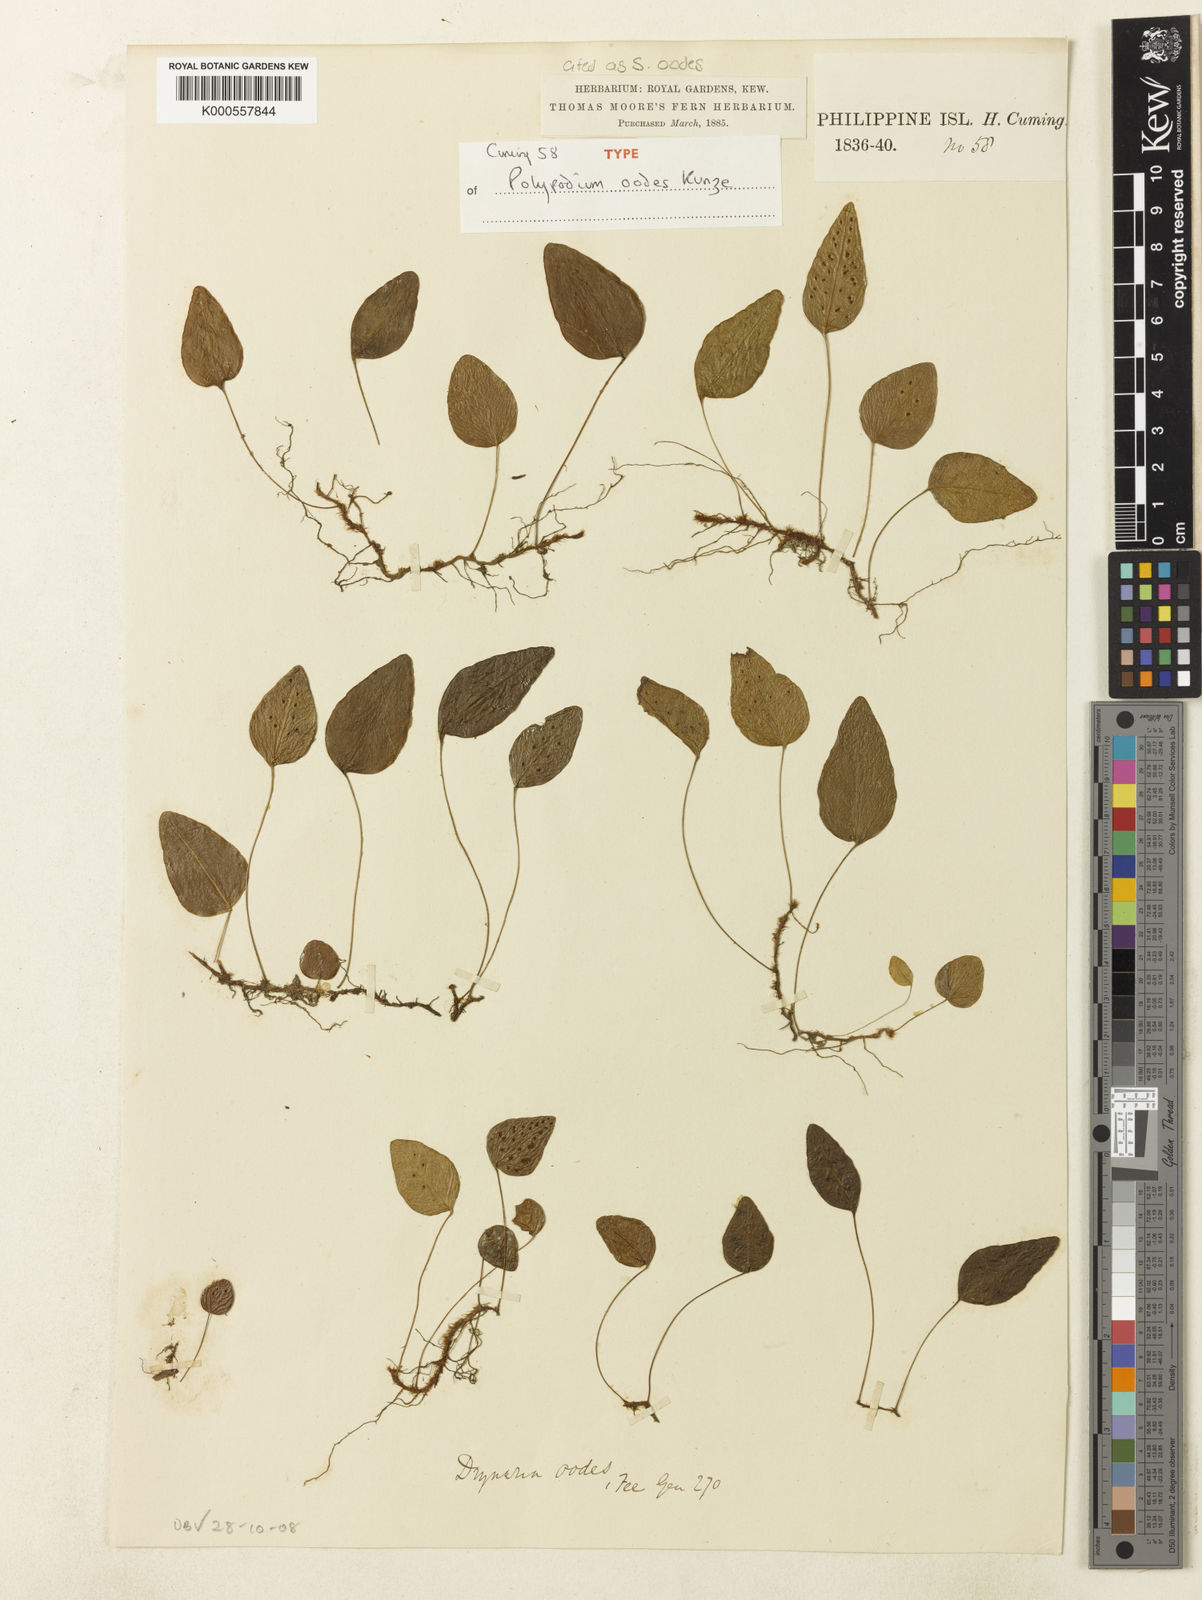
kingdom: Plantae
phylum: Tracheophyta
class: Polypodiopsida
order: Polypodiales
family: Polypodiaceae
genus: Selliguea
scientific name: Selliguea oodes
